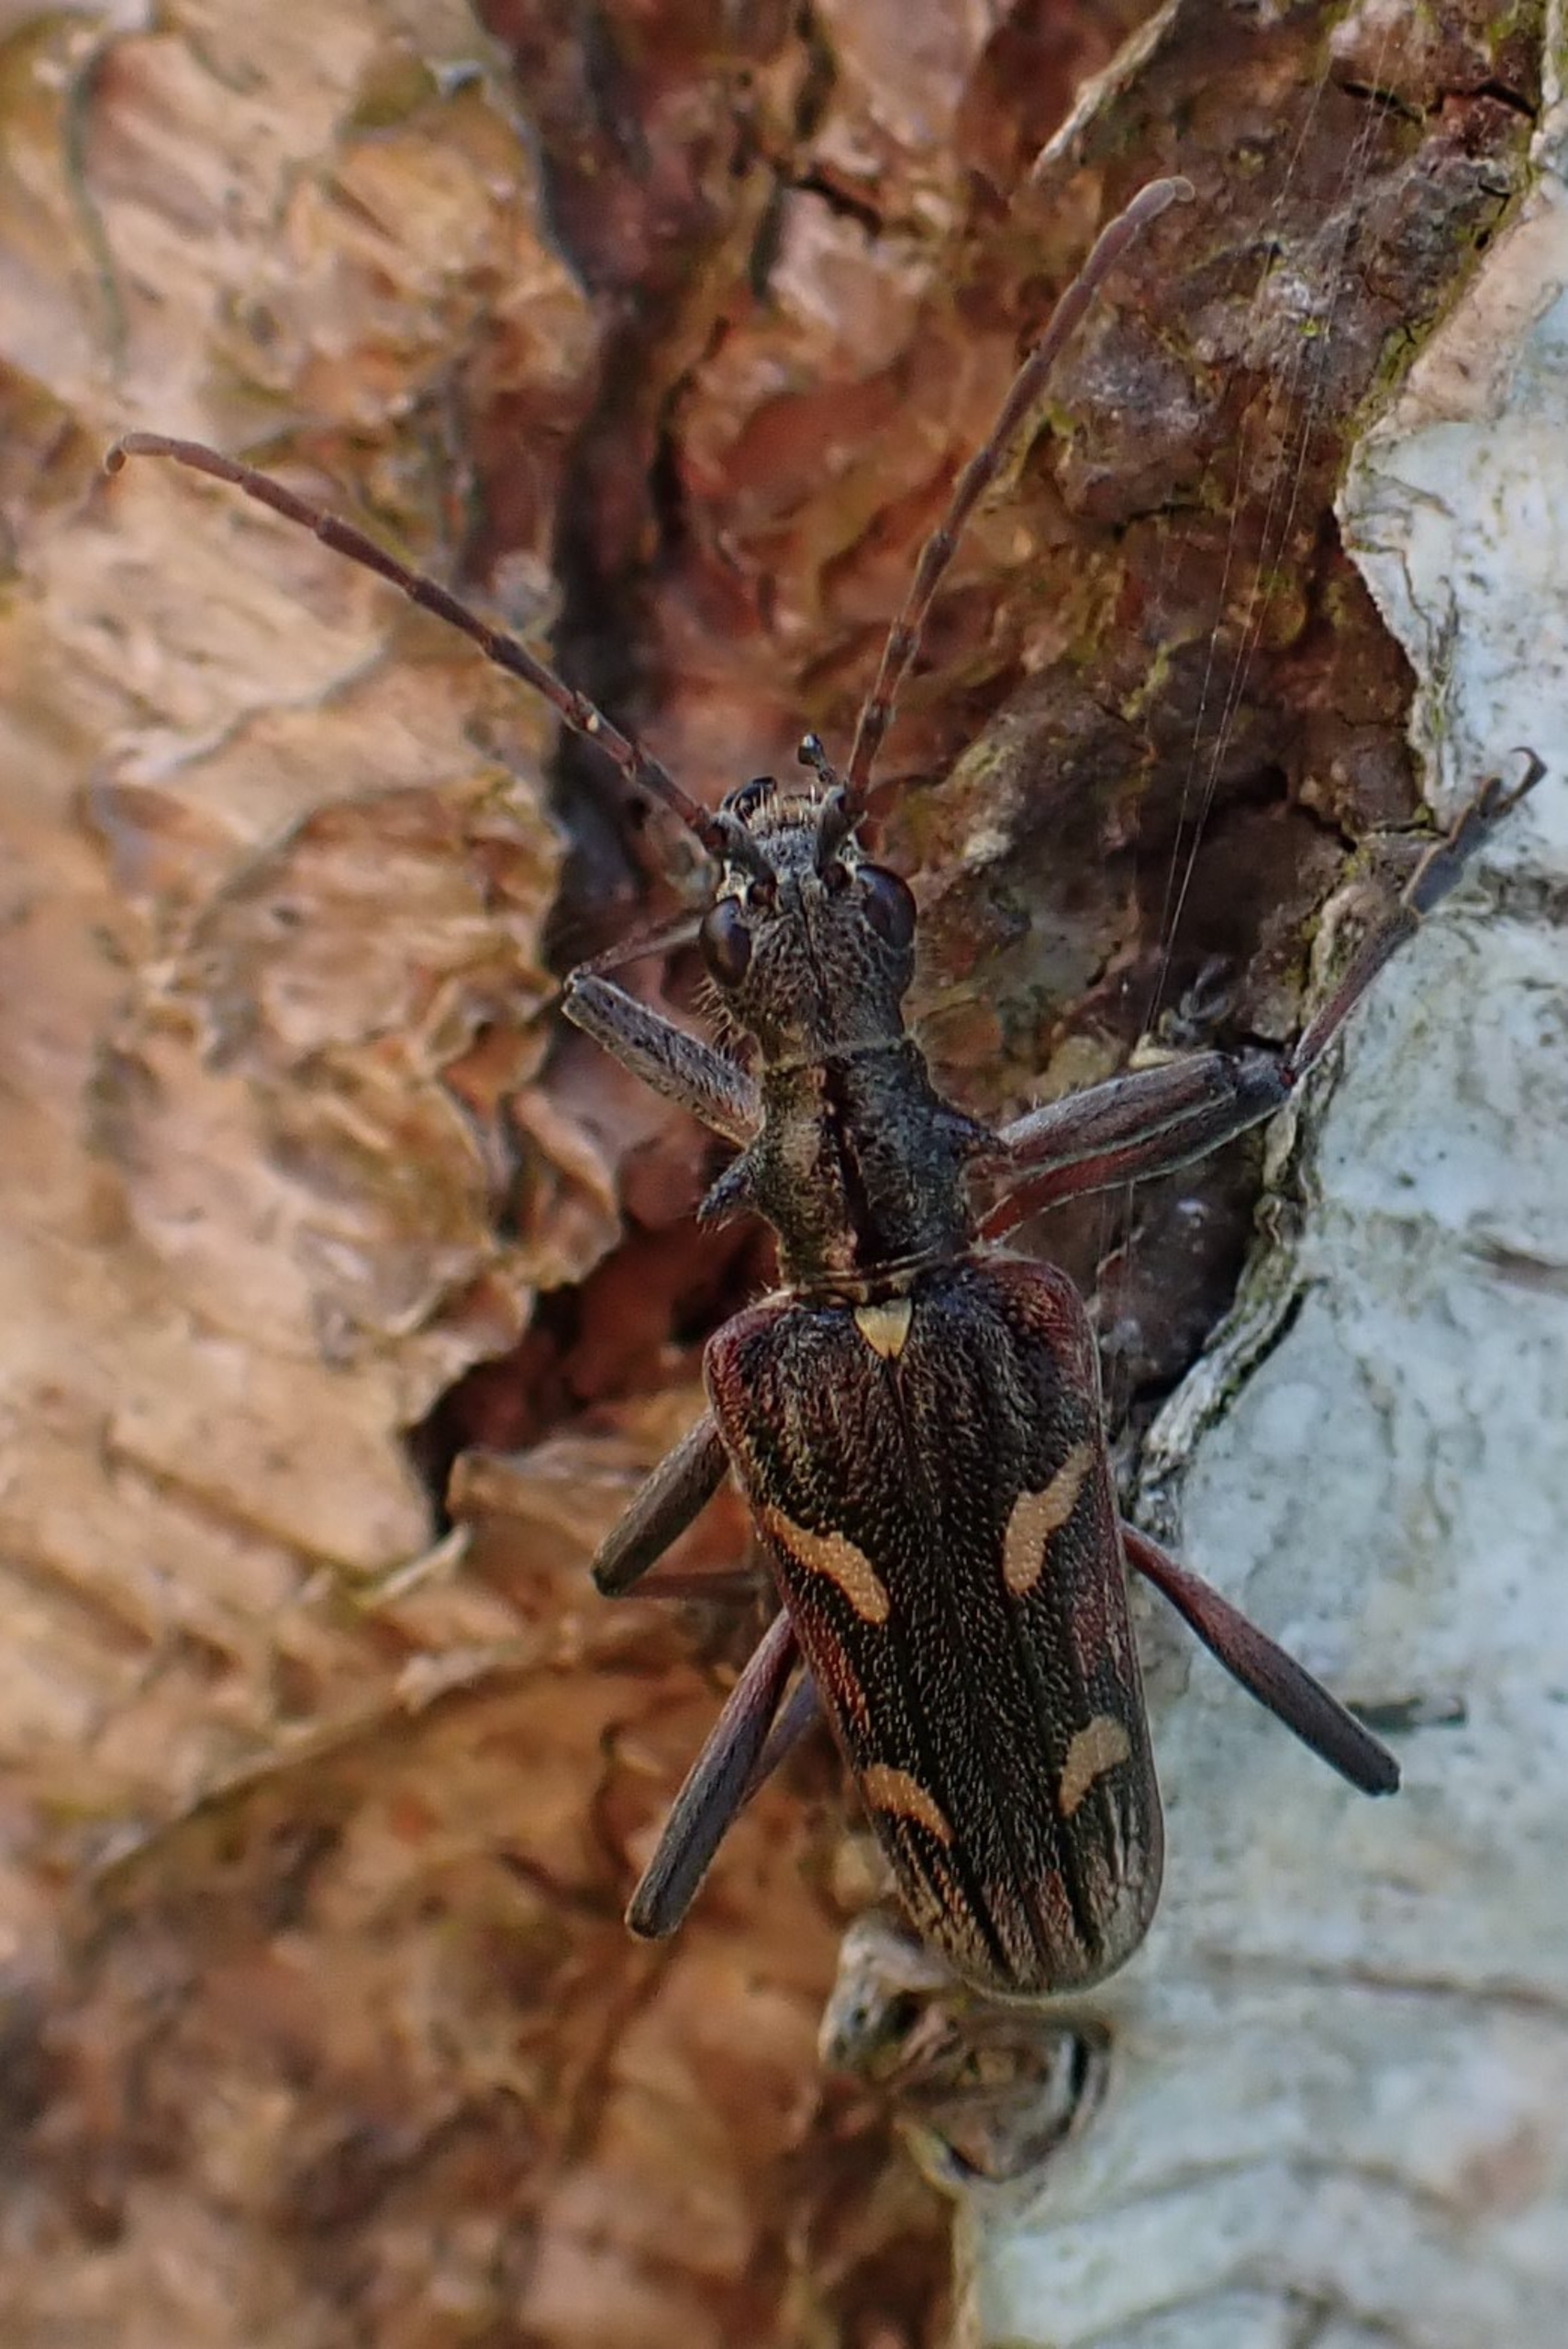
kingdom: Animalia
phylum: Arthropoda
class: Insecta
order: Coleoptera
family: Cerambycidae
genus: Rhagium
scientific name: Rhagium bifasciatum
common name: Båndet tandbuk
